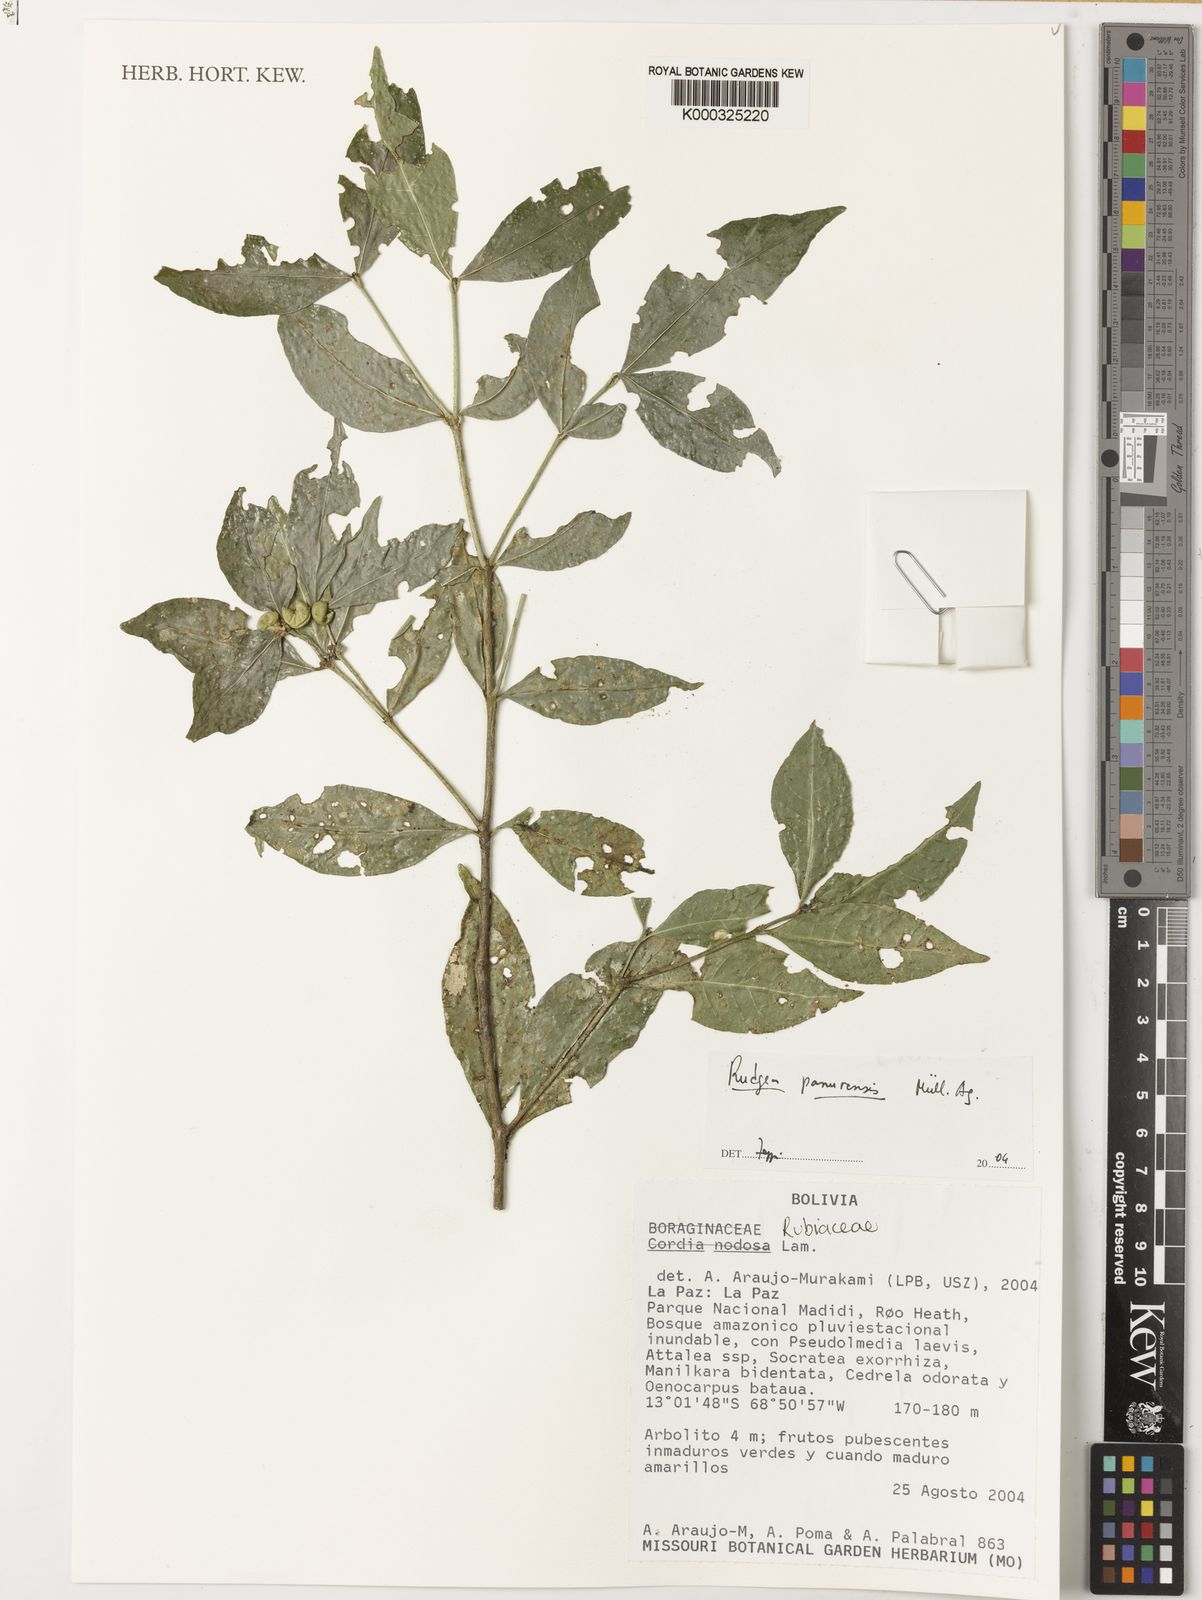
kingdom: Plantae
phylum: Tracheophyta
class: Magnoliopsida
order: Gentianales
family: Rubiaceae
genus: Rudgea
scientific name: Rudgea panurensis
